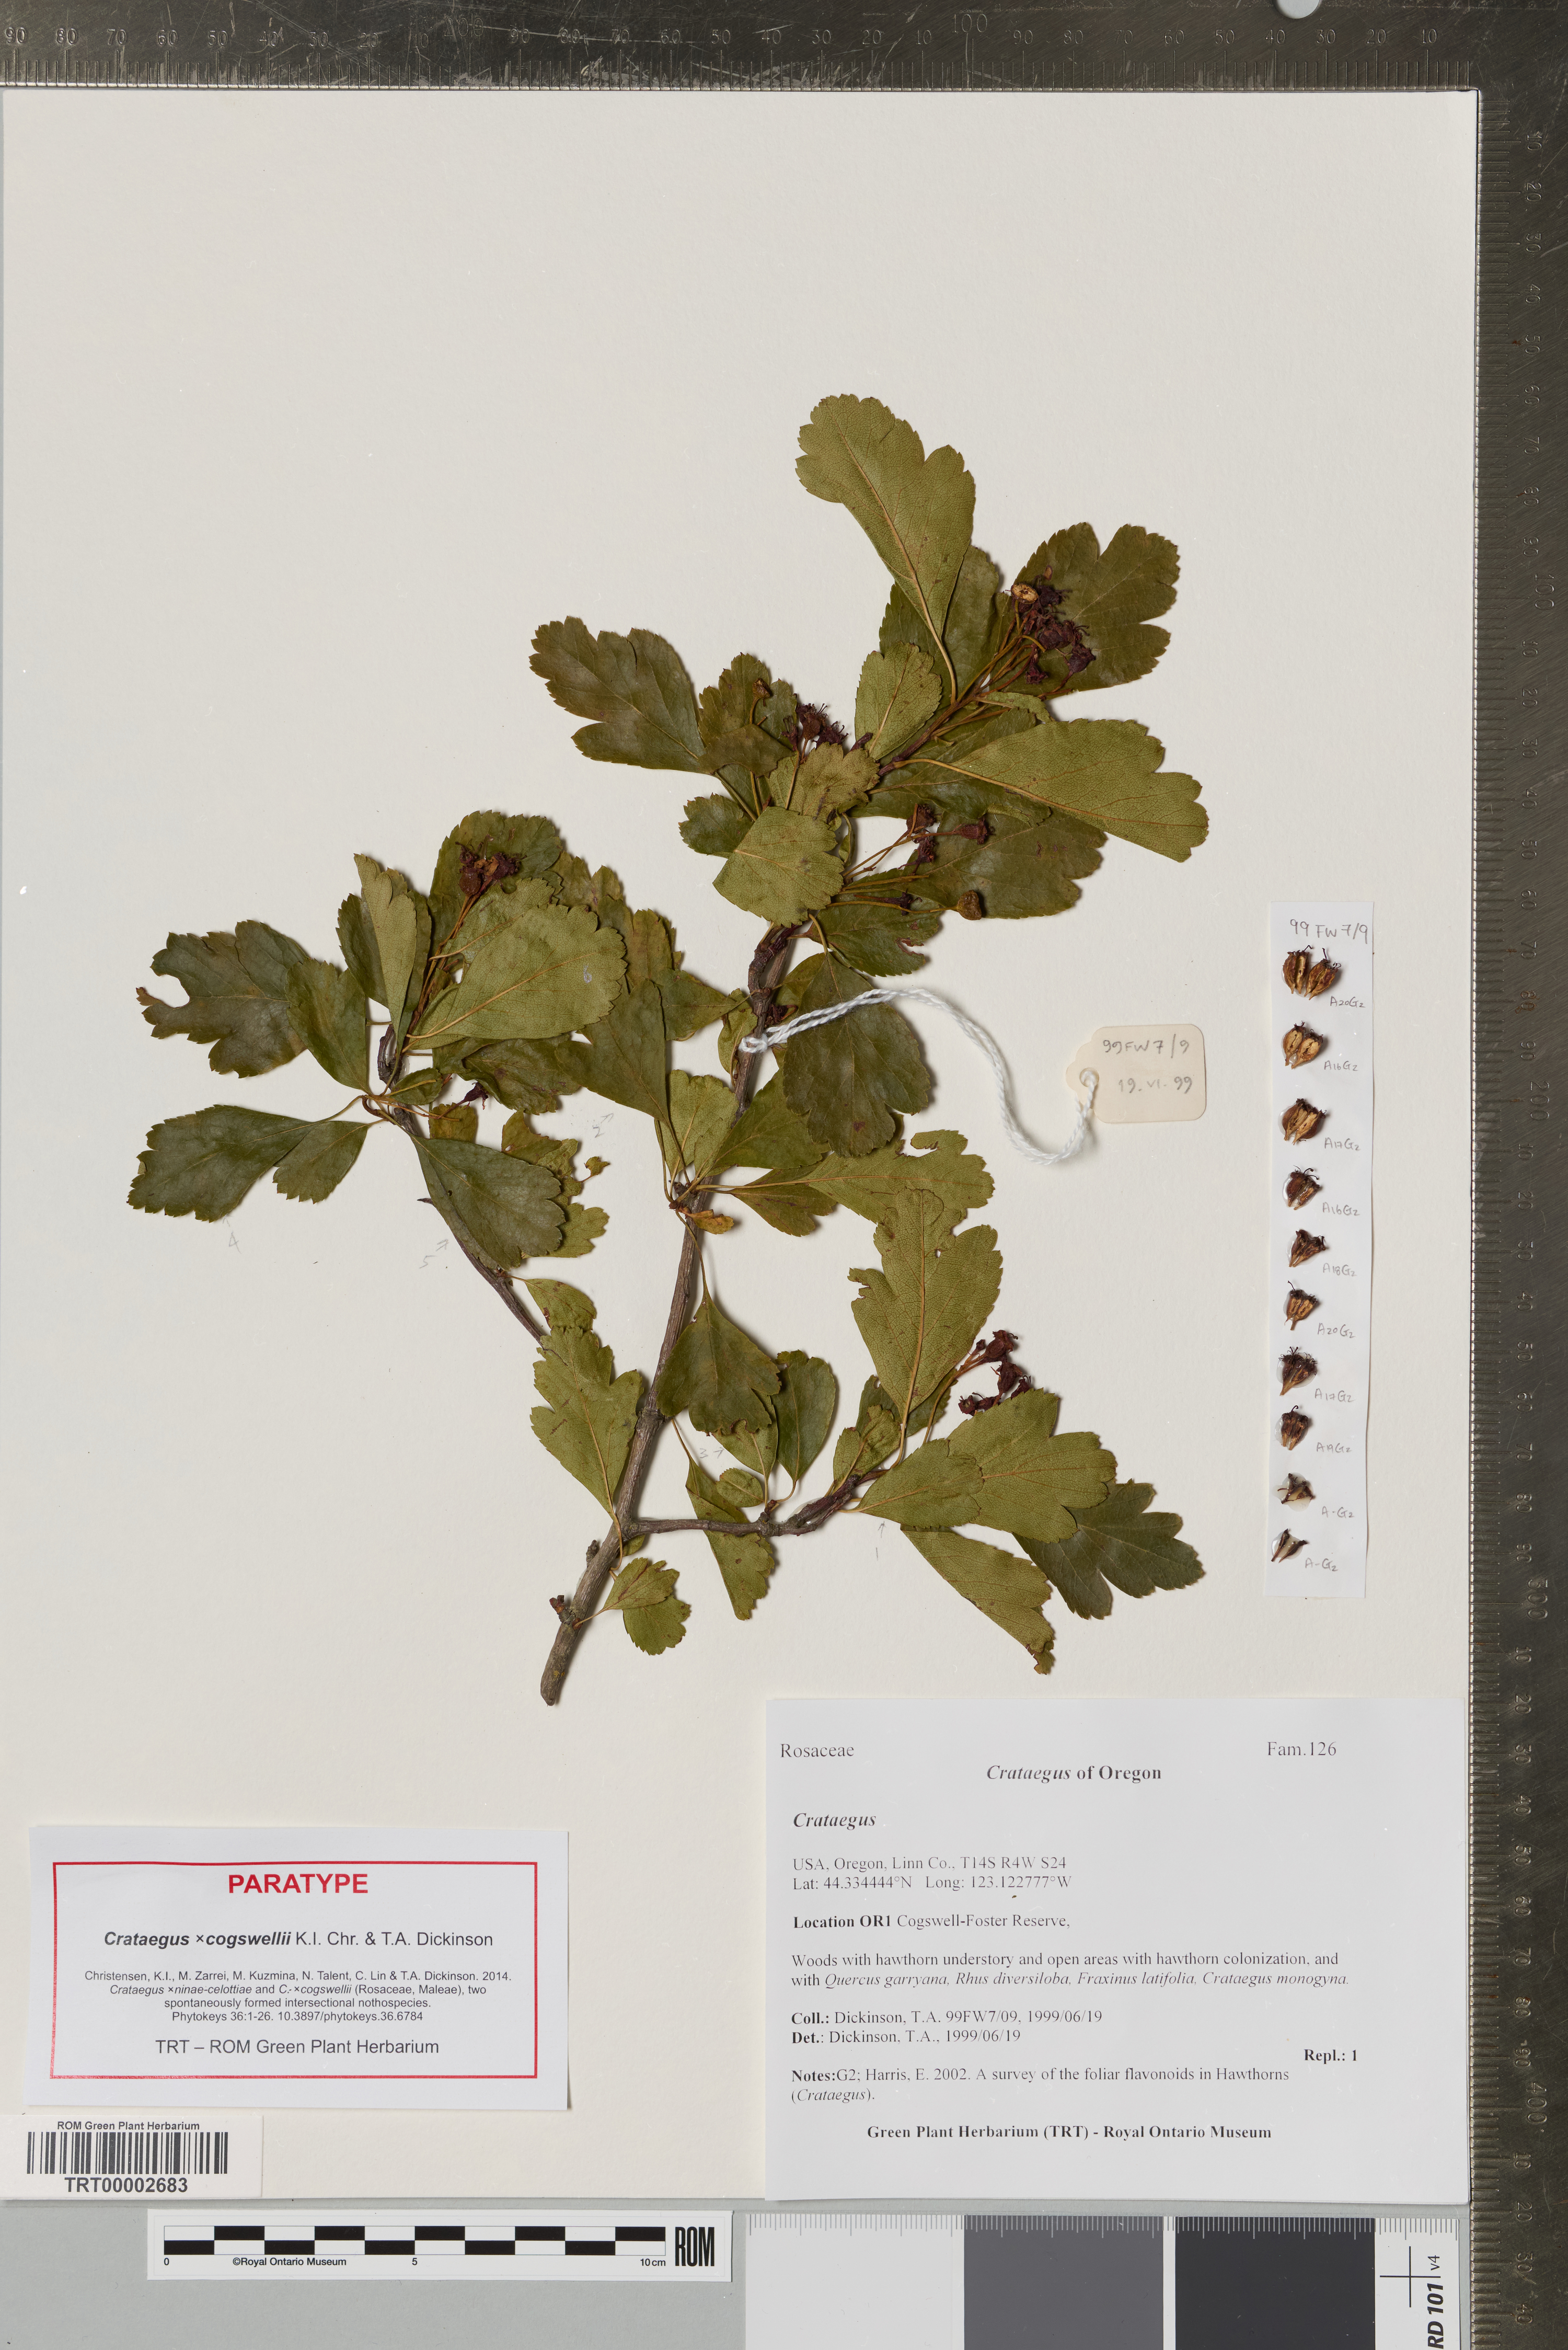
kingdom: Plantae
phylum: Tracheophyta
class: Magnoliopsida
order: Rosales
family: Rosaceae
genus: Crataegus
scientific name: Crataegus
